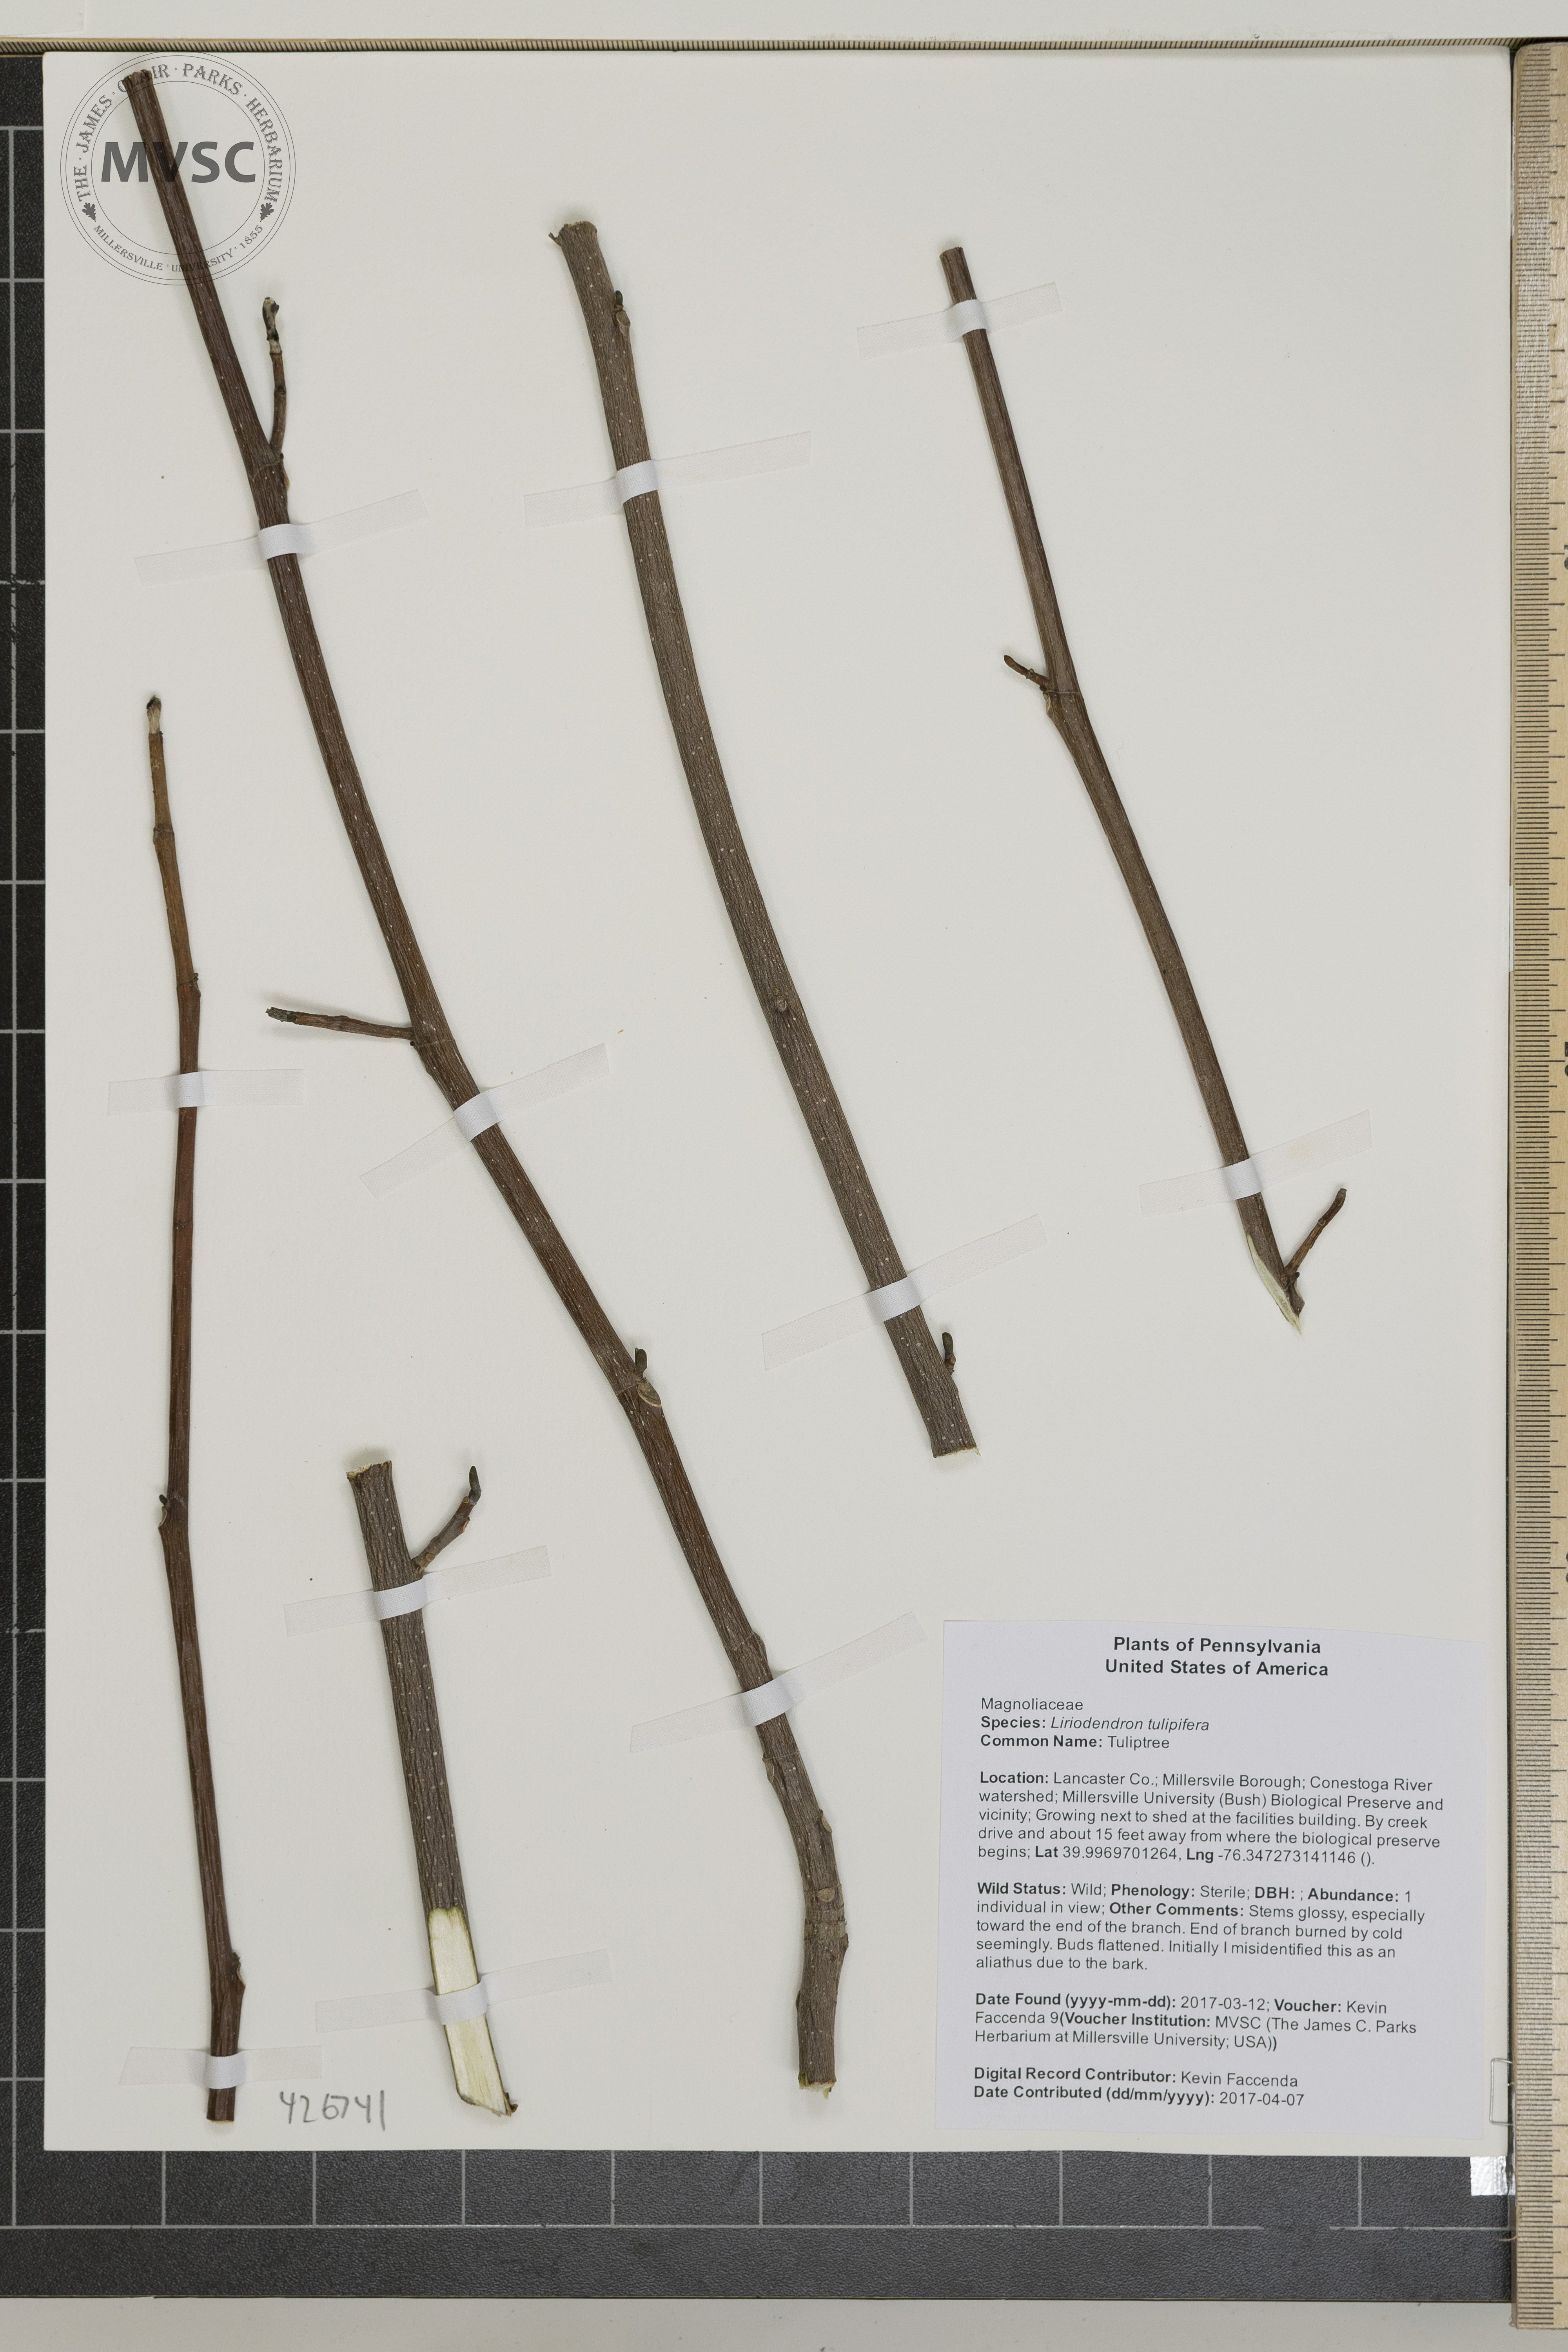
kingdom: Plantae
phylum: Tracheophyta
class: Magnoliopsida
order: Magnoliales
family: Magnoliaceae
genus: Liriodendron
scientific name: Liriodendron tulipifera
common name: Tuliptree
